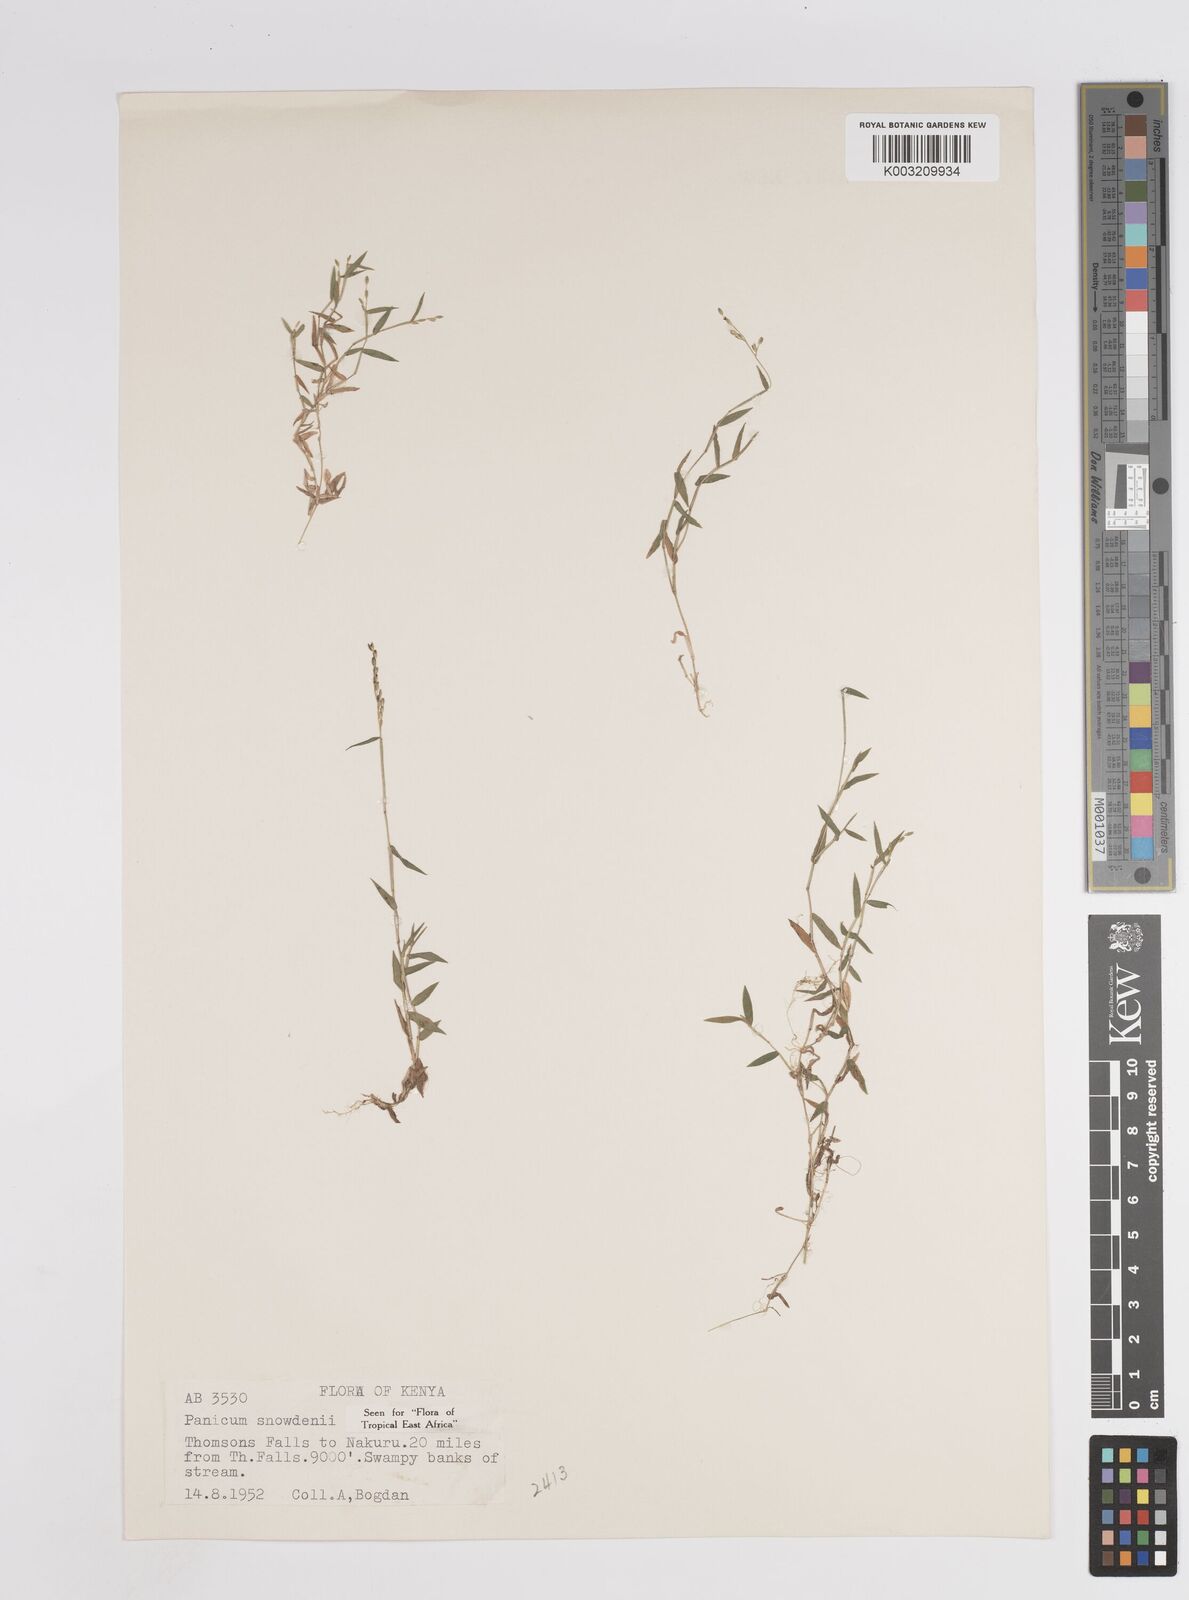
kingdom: Plantae
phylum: Tracheophyta
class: Liliopsida
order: Poales
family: Poaceae
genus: Adenochloa
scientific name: Adenochloa hymeniochila
